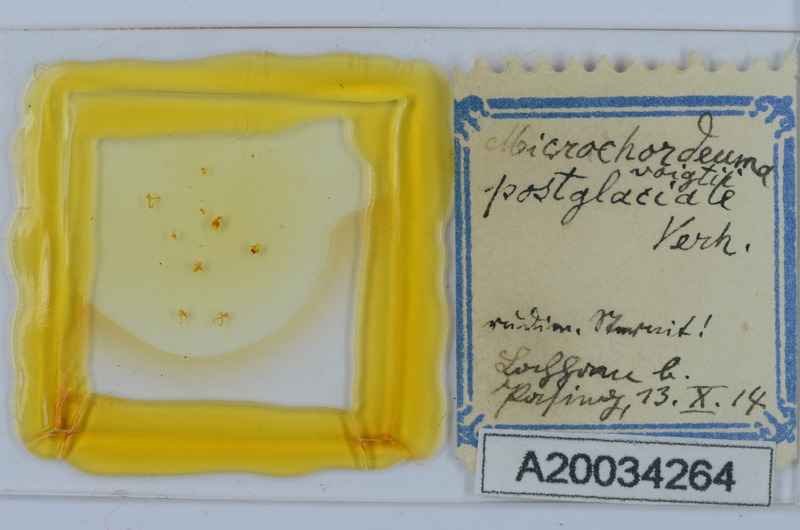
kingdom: Animalia
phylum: Arthropoda
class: Diplopoda
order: Chordeumatida
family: Chordeumatidae
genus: Melogona
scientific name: Melogona voigtii
